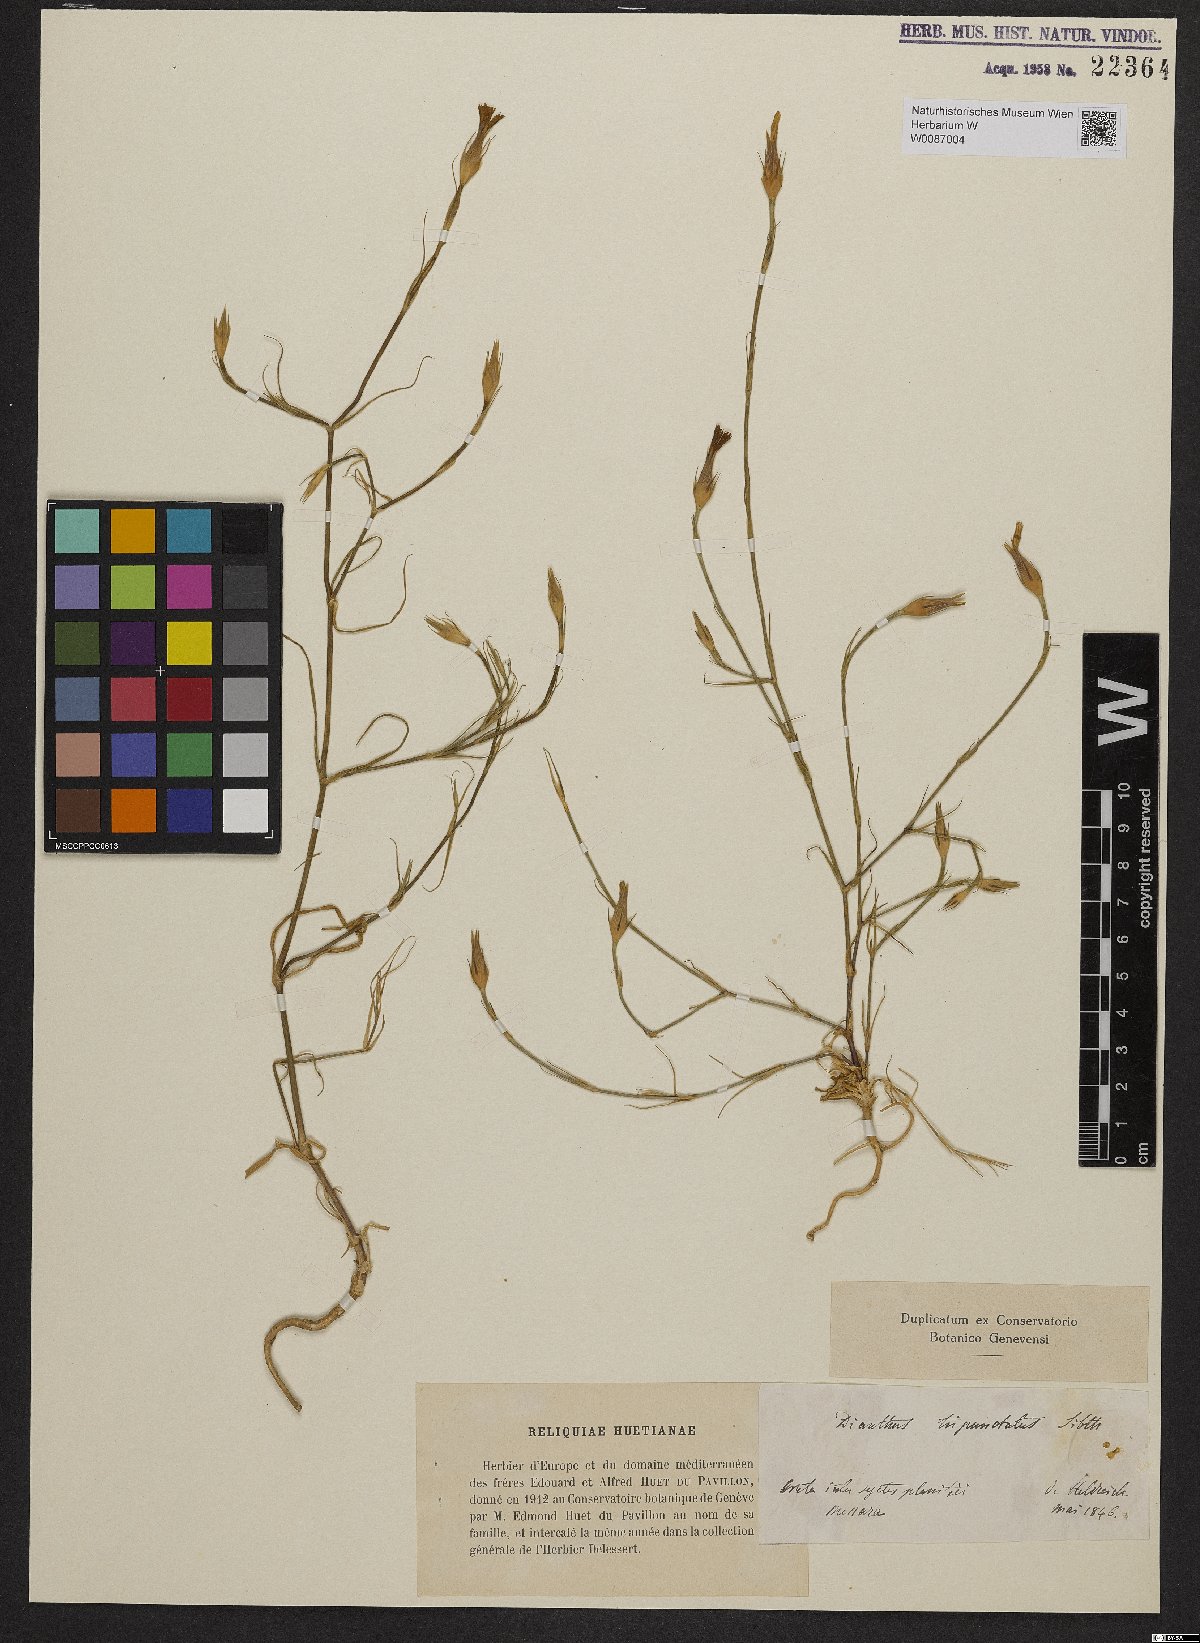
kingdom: Plantae
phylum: Tracheophyta
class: Magnoliopsida
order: Caryophyllales
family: Caryophyllaceae
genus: Dianthus
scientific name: Dianthus tripunctatus
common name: Three-spotted pink
